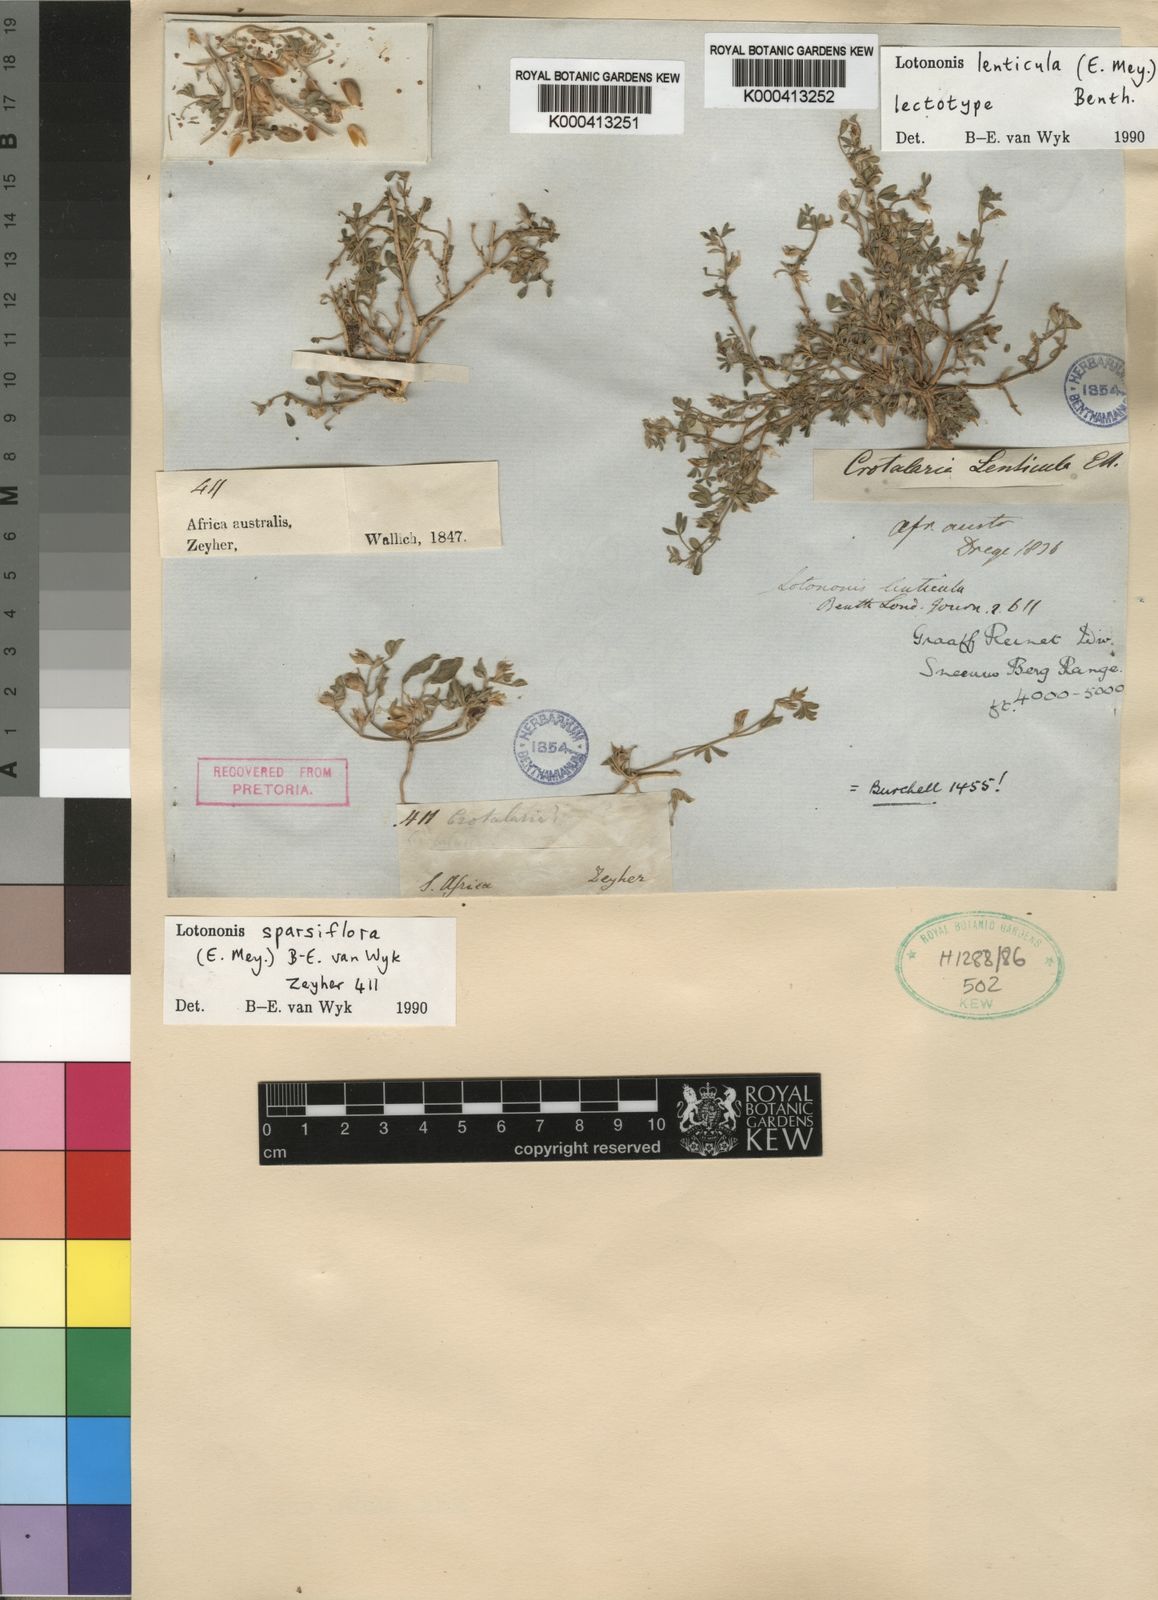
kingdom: Plantae
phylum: Tracheophyta
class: Magnoliopsida
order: Fabales
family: Fabaceae
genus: Lotononis
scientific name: Lotononis sparsiflora
